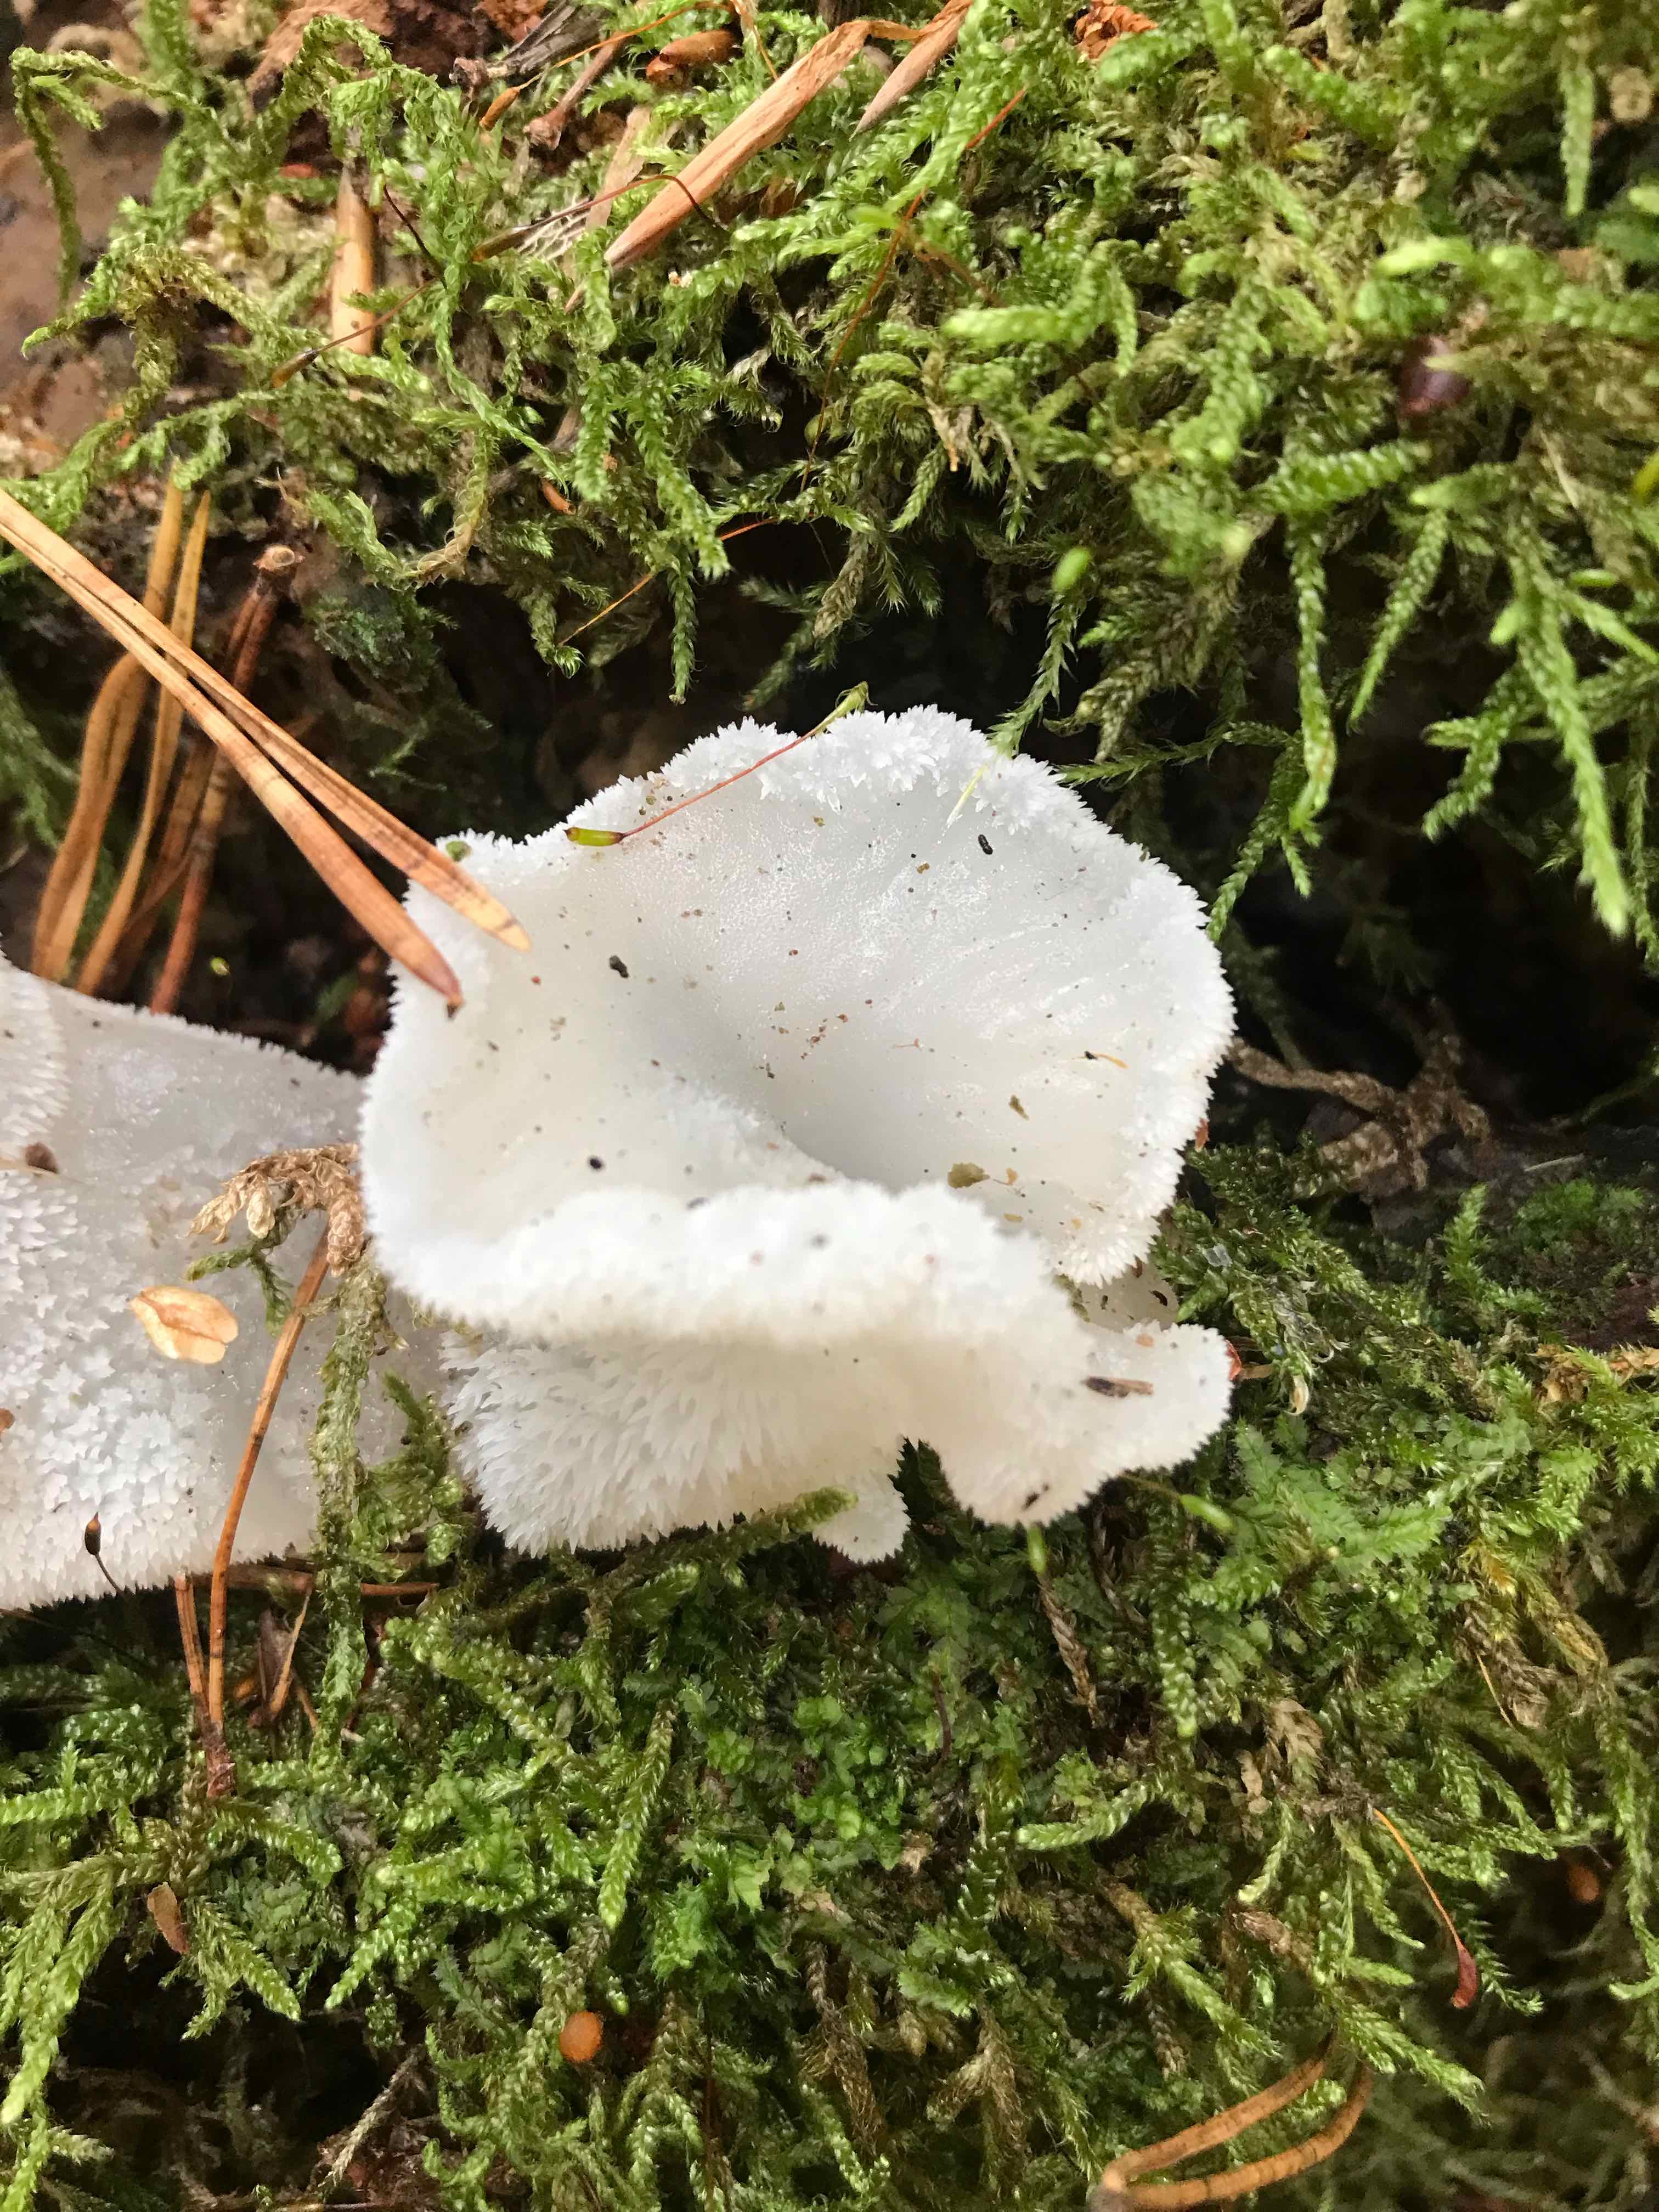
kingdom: Fungi
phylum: Basidiomycota
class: Agaricomycetes
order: Auriculariales
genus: Pseudohydnum
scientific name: Pseudohydnum gelatinosum
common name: bævretand
